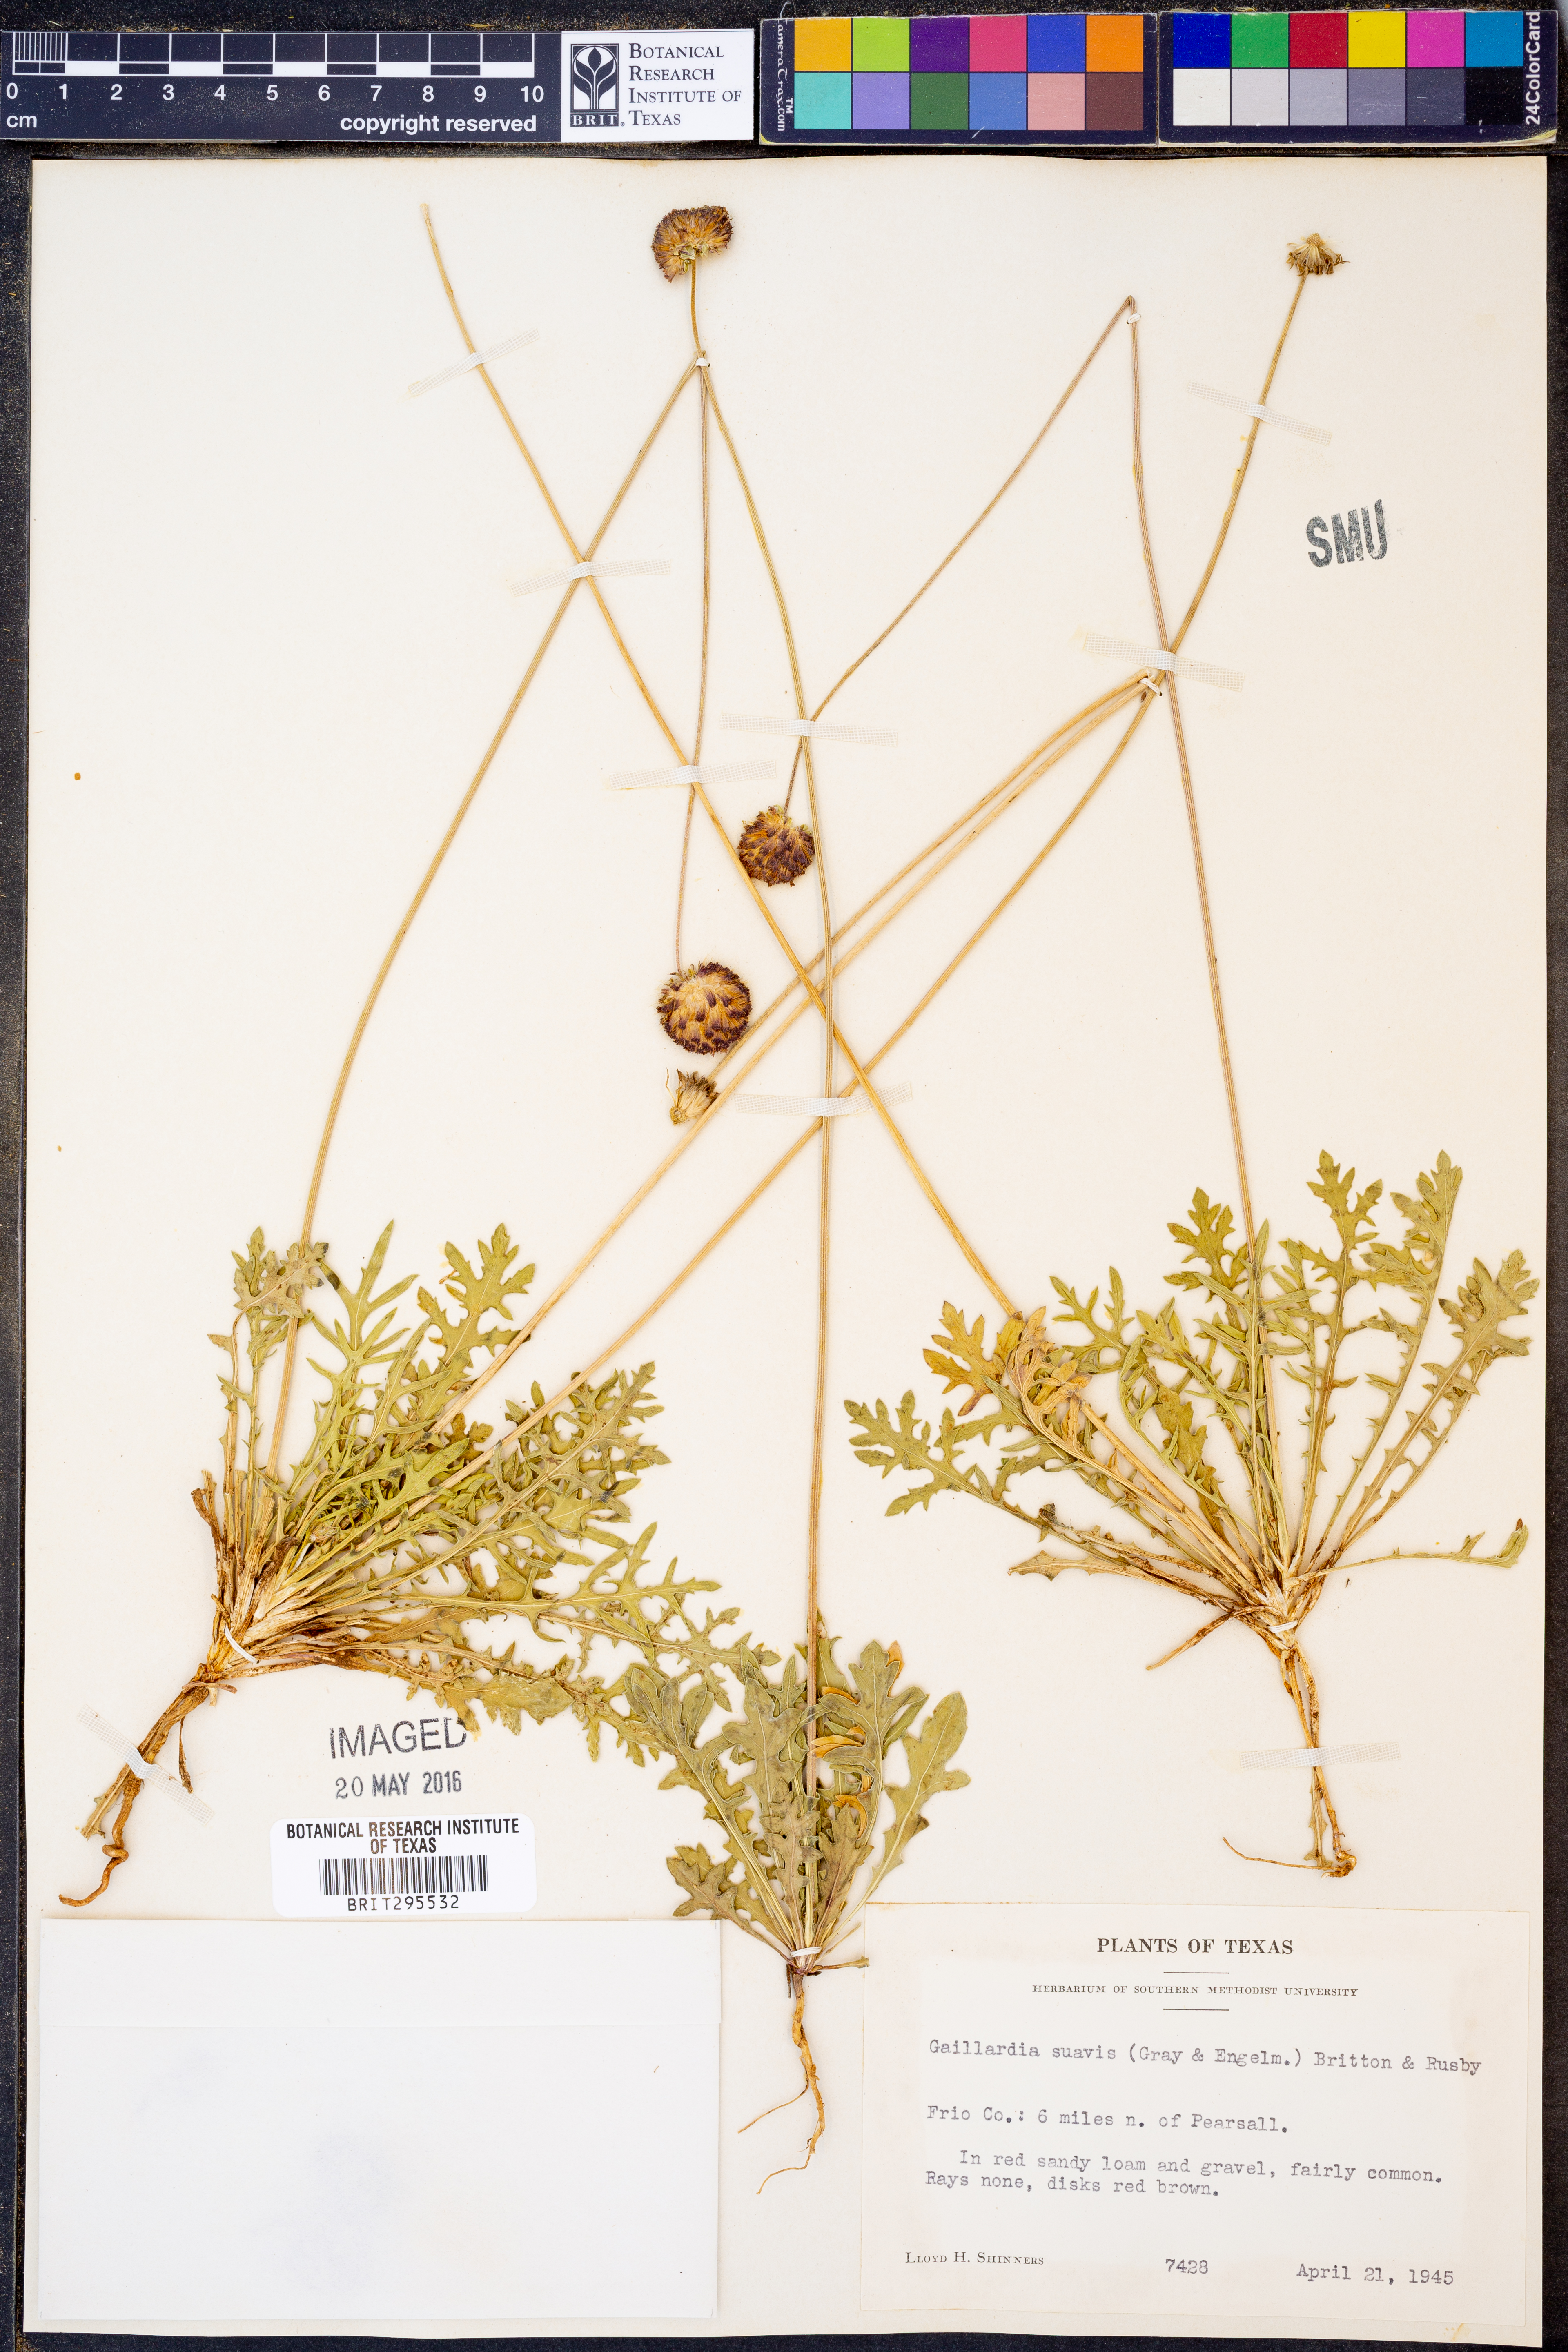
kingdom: Plantae
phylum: Tracheophyta
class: Magnoliopsida
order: Asterales
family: Asteraceae
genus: Gaillardia
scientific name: Gaillardia suavis
